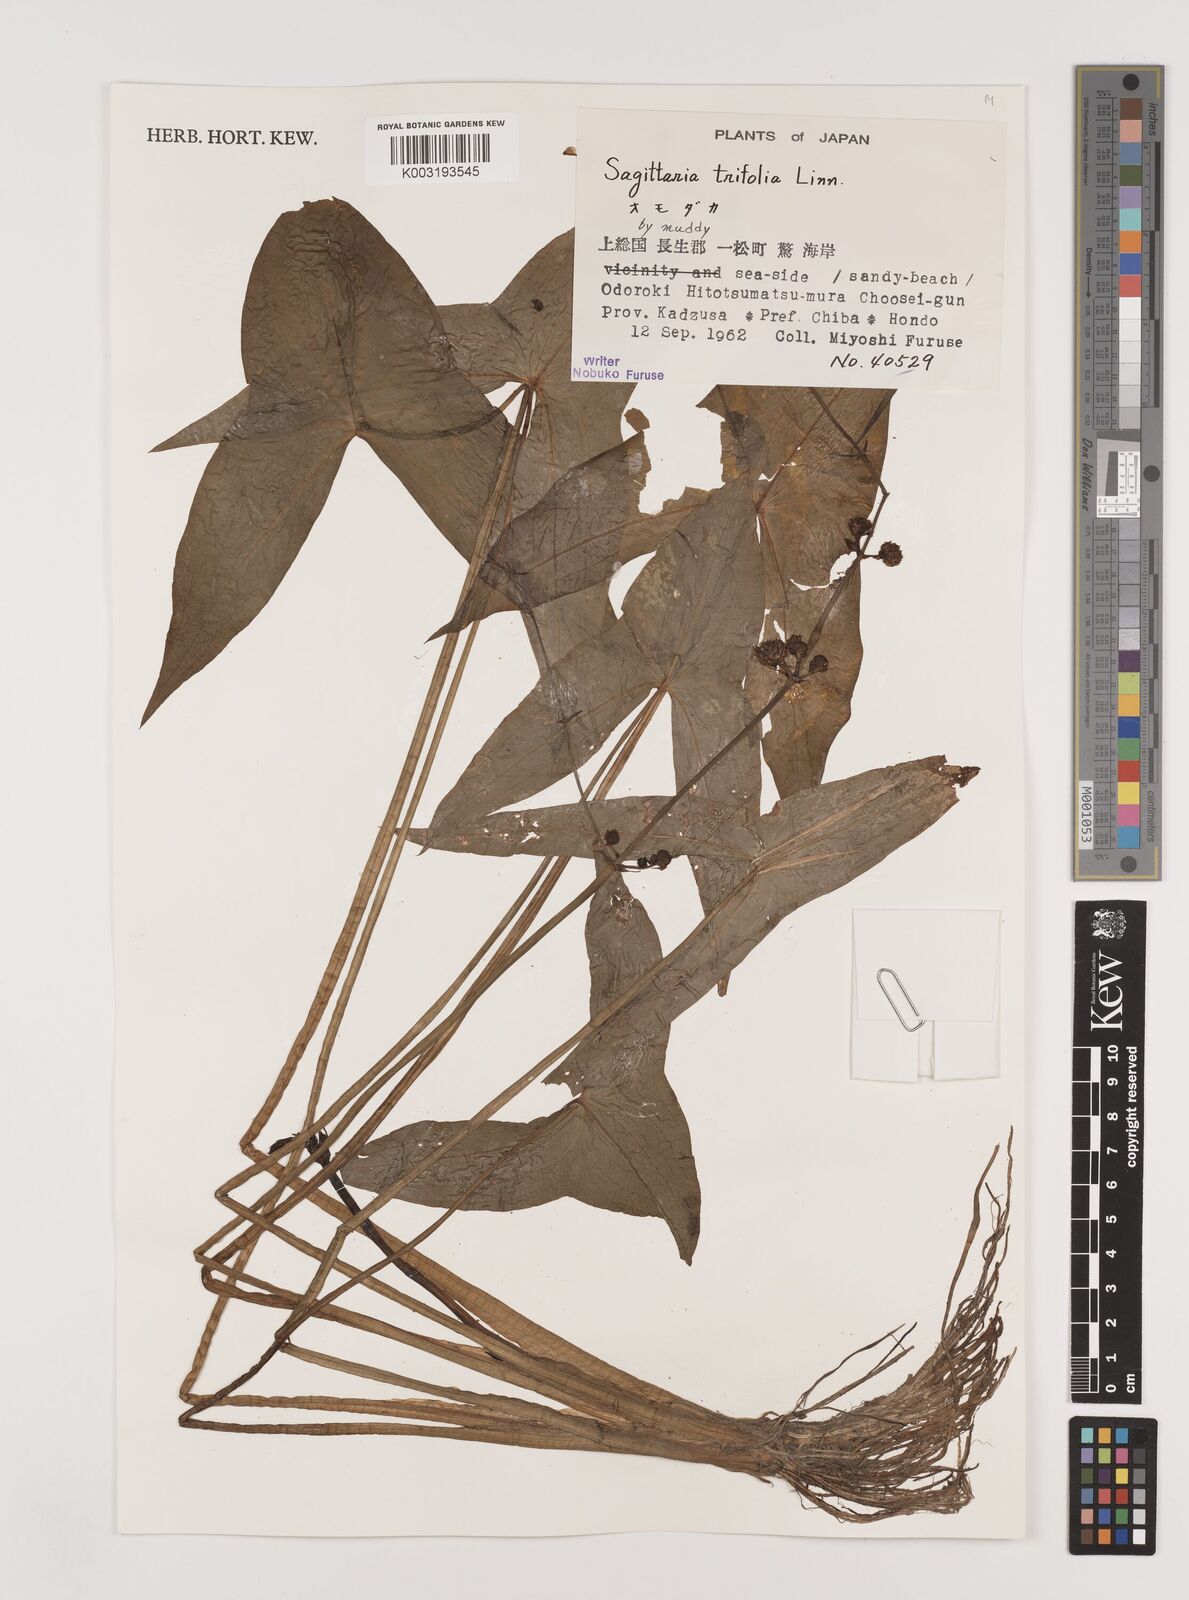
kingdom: Plantae
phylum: Tracheophyta
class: Liliopsida
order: Alismatales
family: Alismataceae
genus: Sagittaria
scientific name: Sagittaria trifolia
